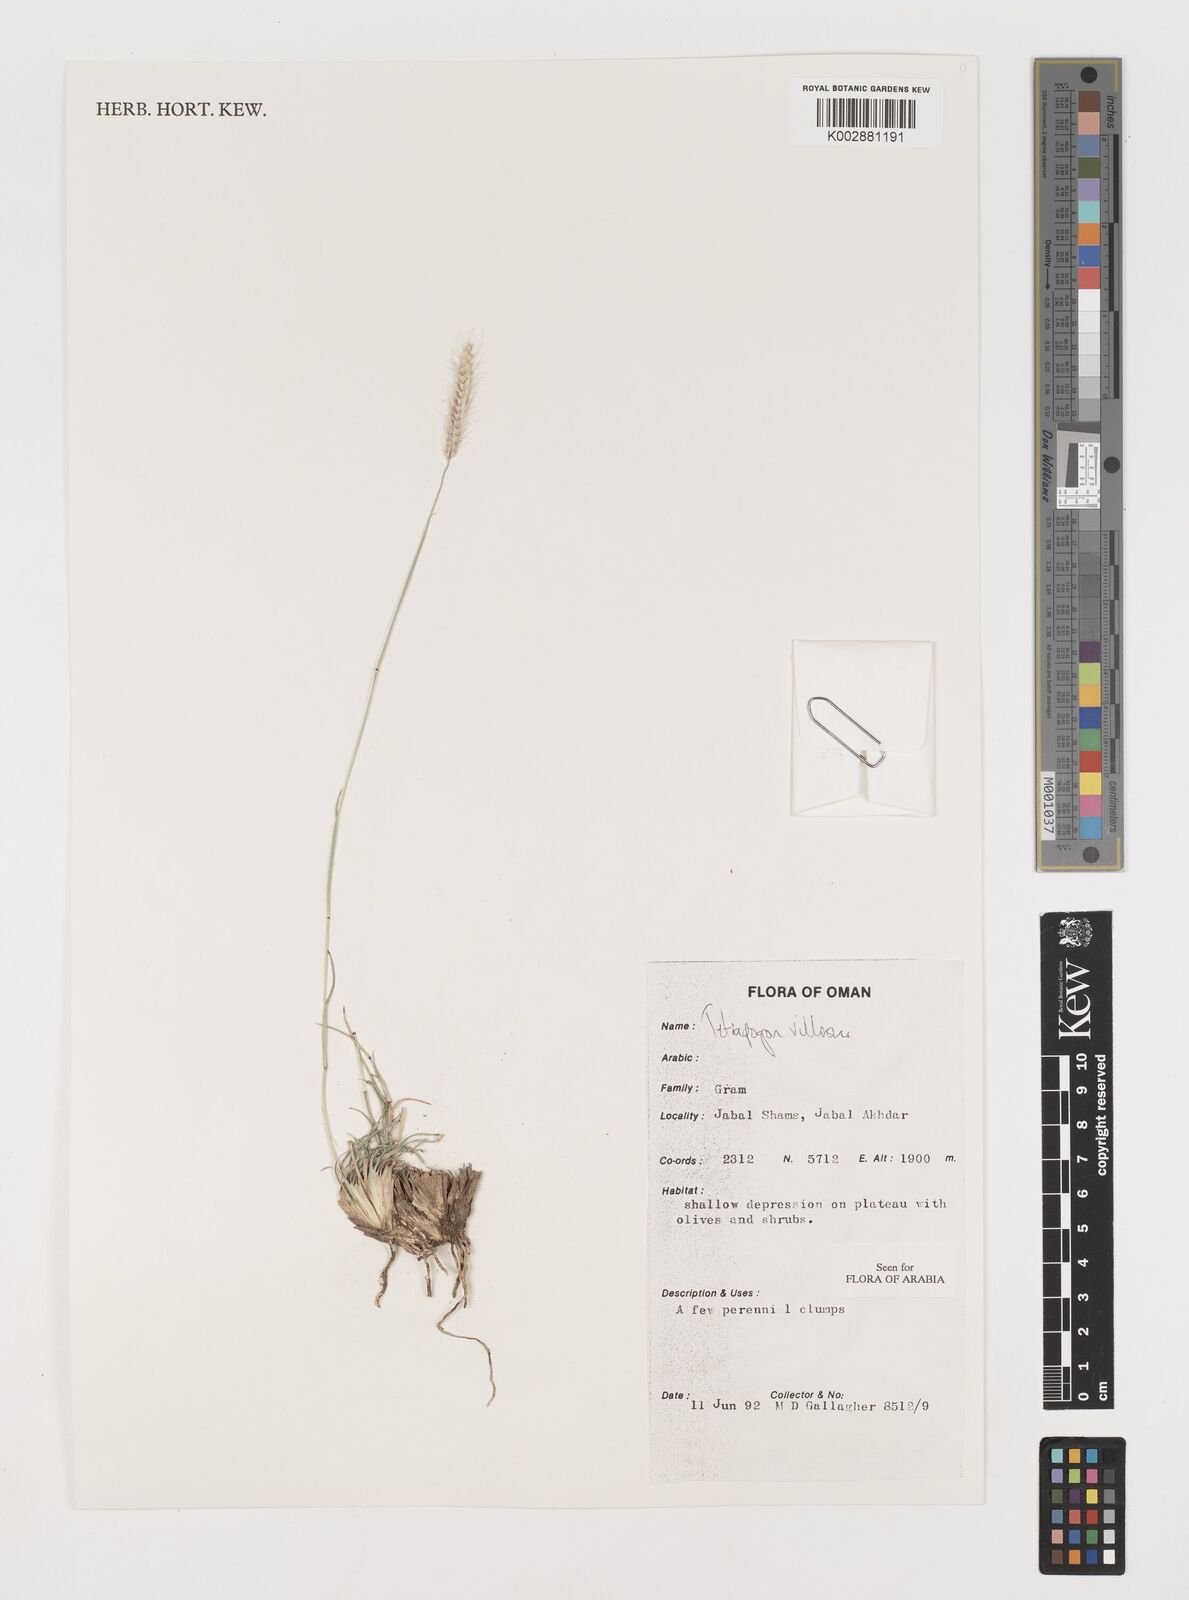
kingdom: Plantae
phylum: Tracheophyta
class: Liliopsida
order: Poales
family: Poaceae
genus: Tetrapogon
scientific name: Tetrapogon villosus
